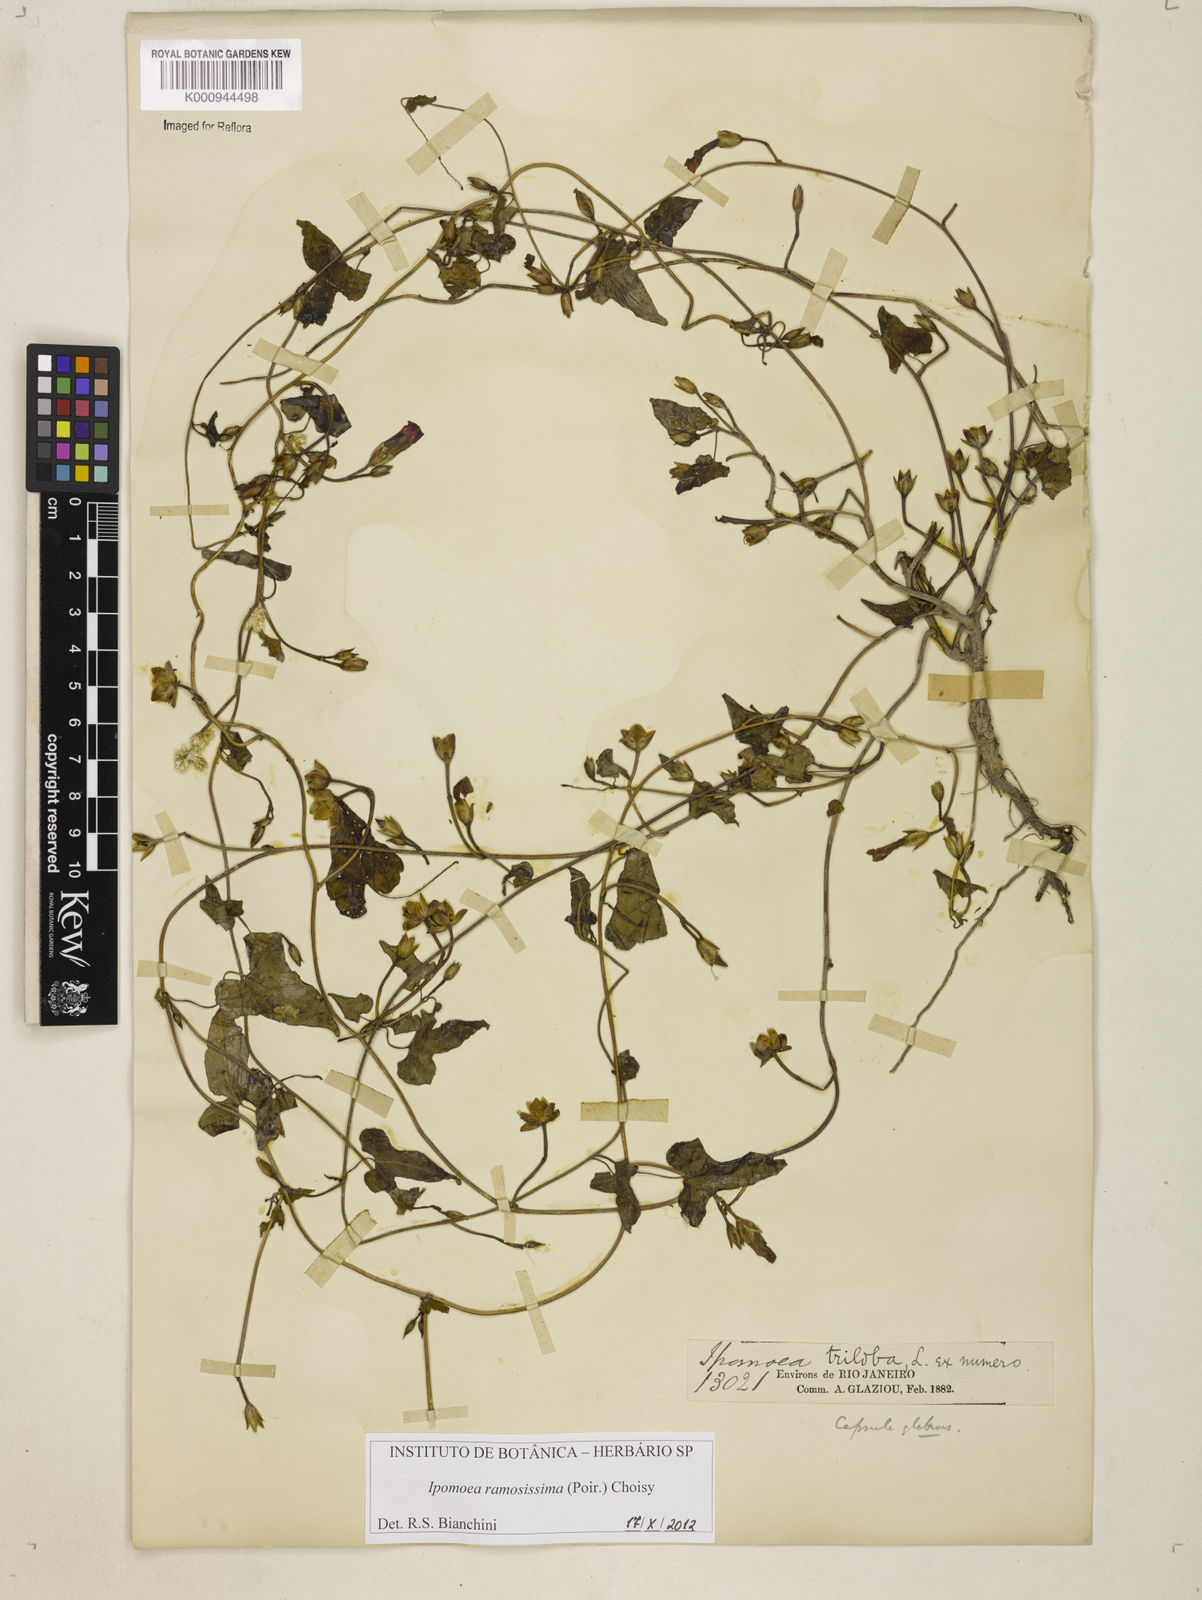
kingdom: Plantae
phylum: Tracheophyta
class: Magnoliopsida
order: Solanales
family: Convolvulaceae
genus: Ipomoea
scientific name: Ipomoea ramosissima
